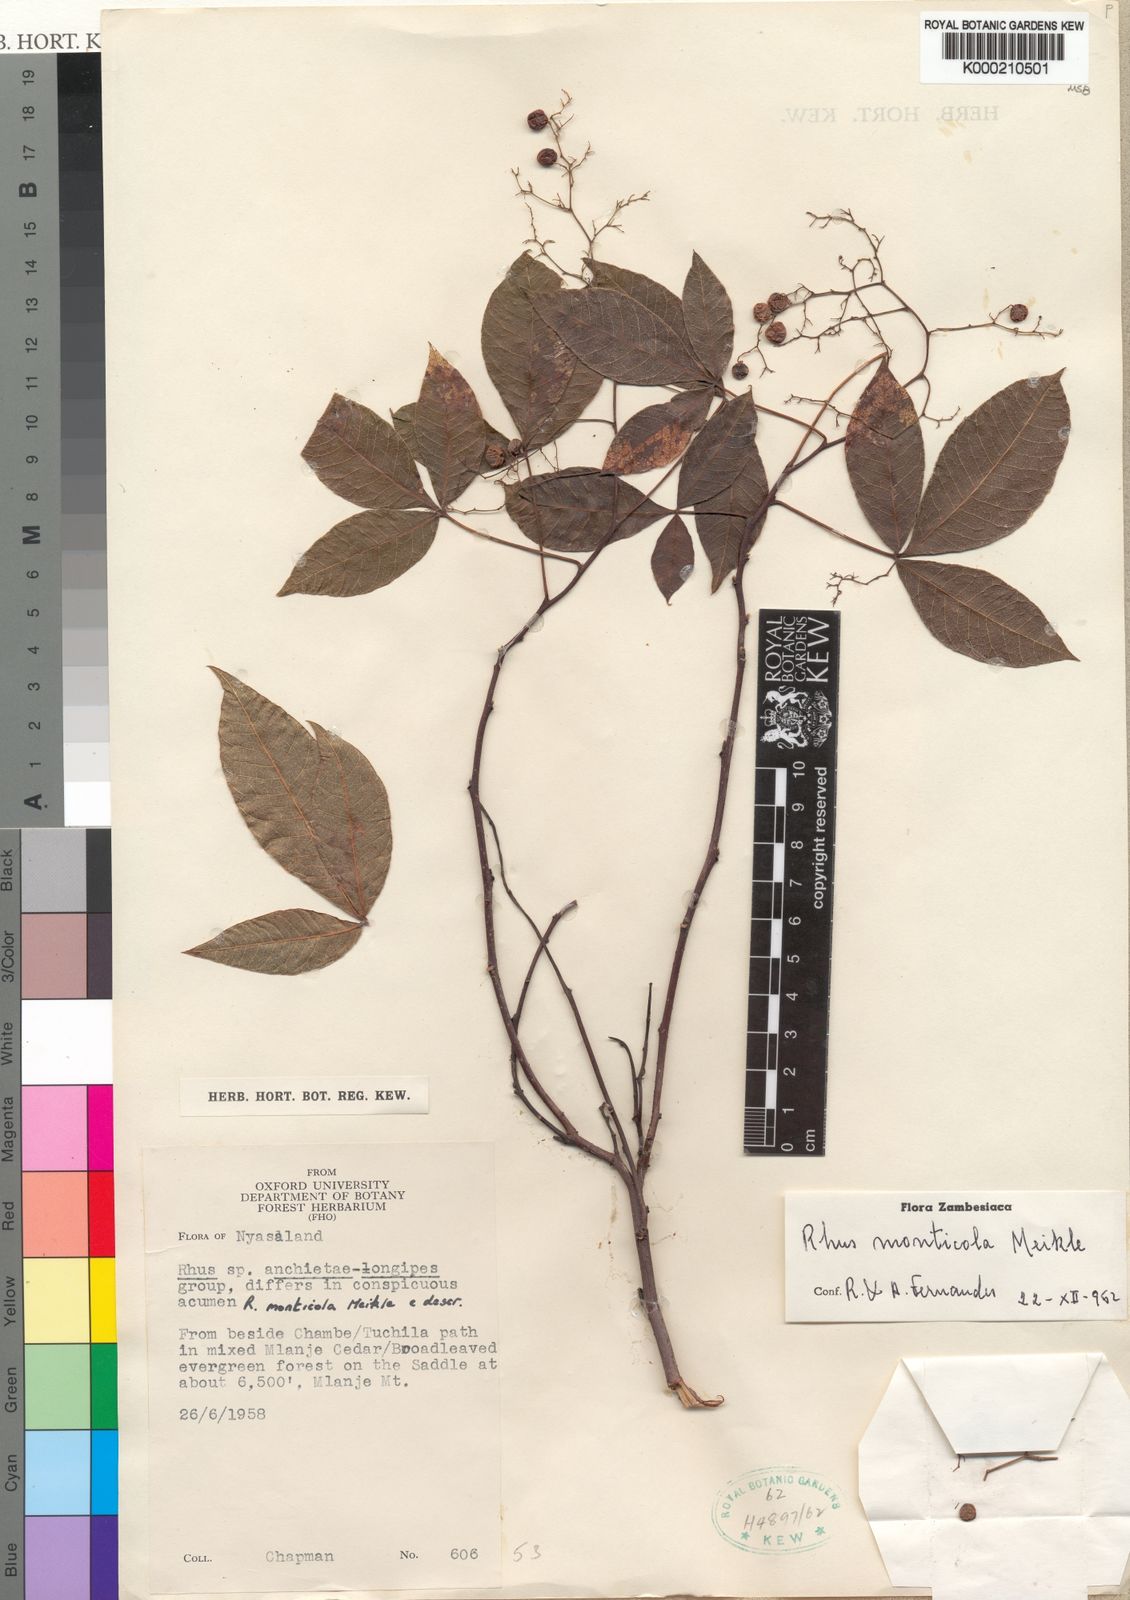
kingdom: Plantae
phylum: Tracheophyta
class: Magnoliopsida
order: Sapindales
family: Anacardiaceae
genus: Searsia
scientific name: Searsia monticola
